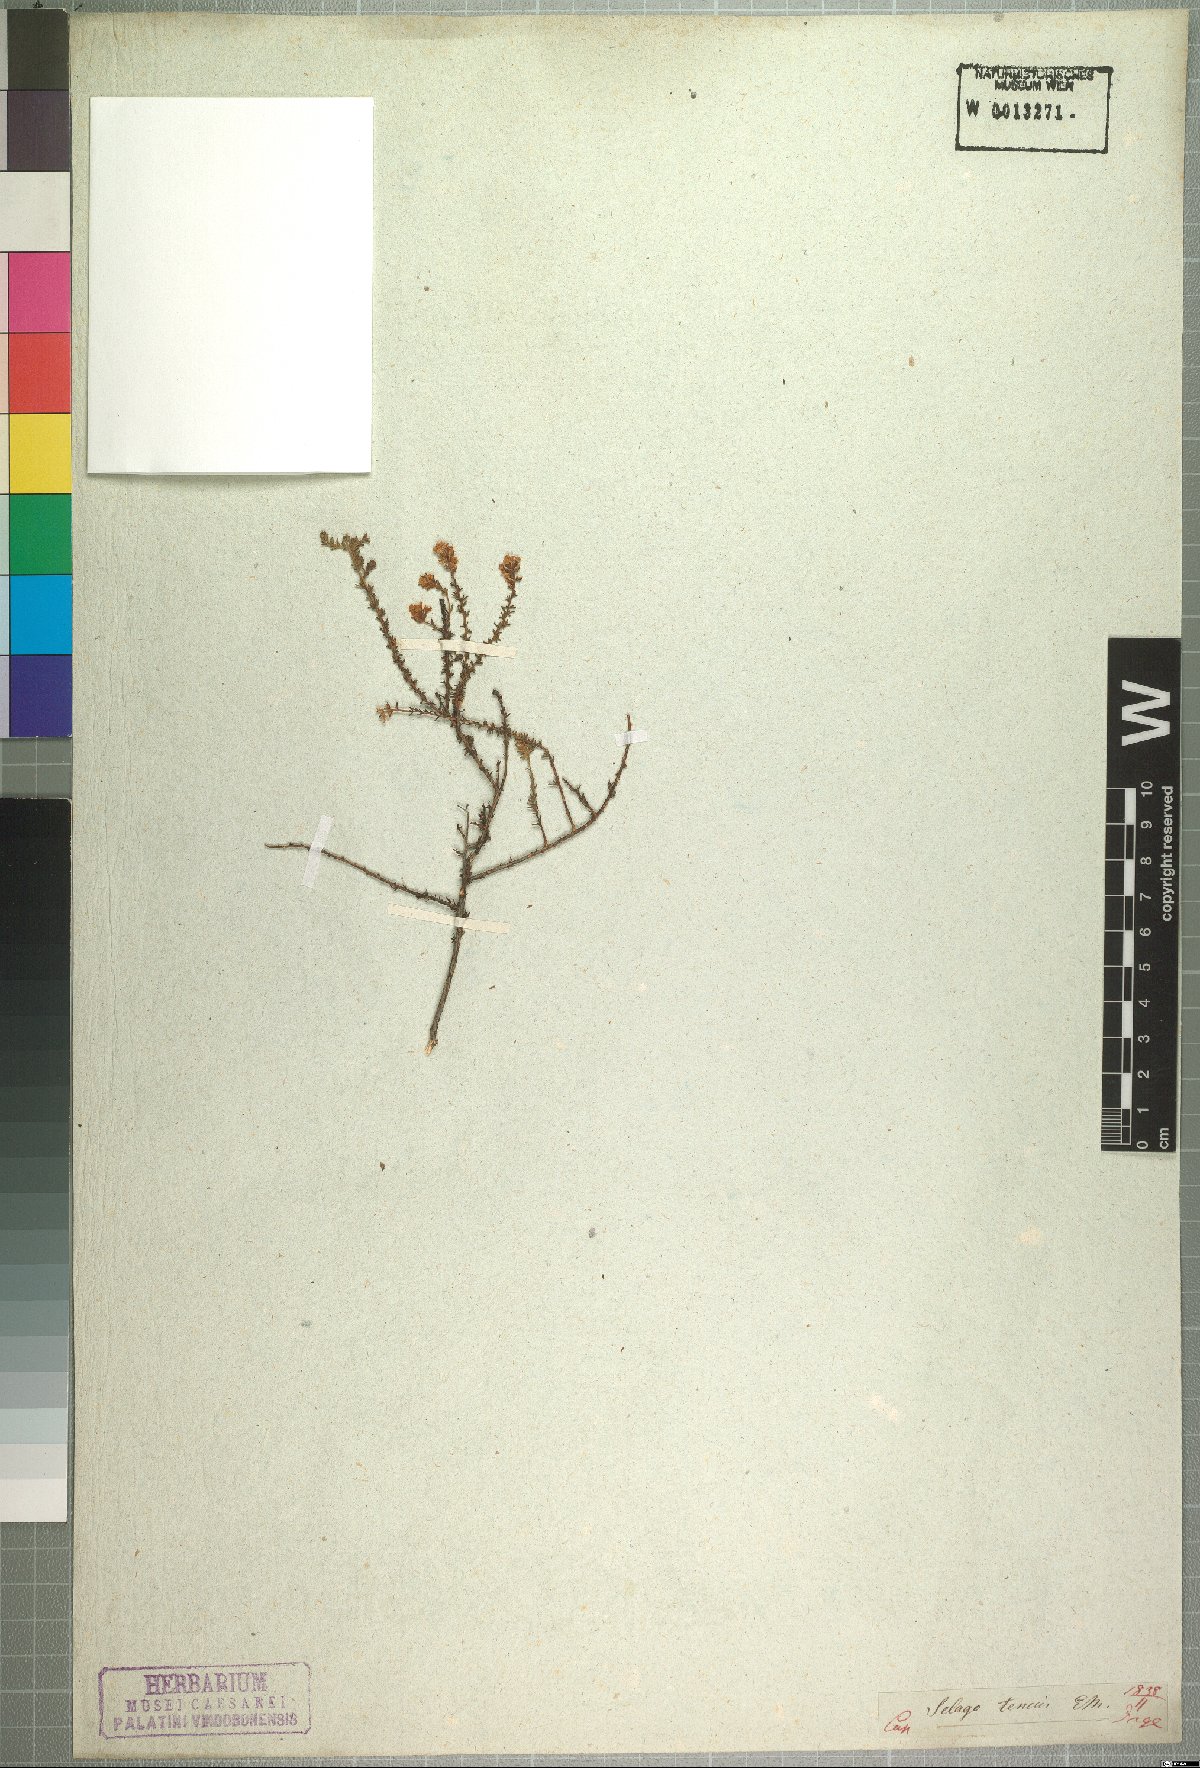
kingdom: Plantae
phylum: Tracheophyta
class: Magnoliopsida
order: Lamiales
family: Scrophulariaceae
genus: Selago
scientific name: Selago tenuis
